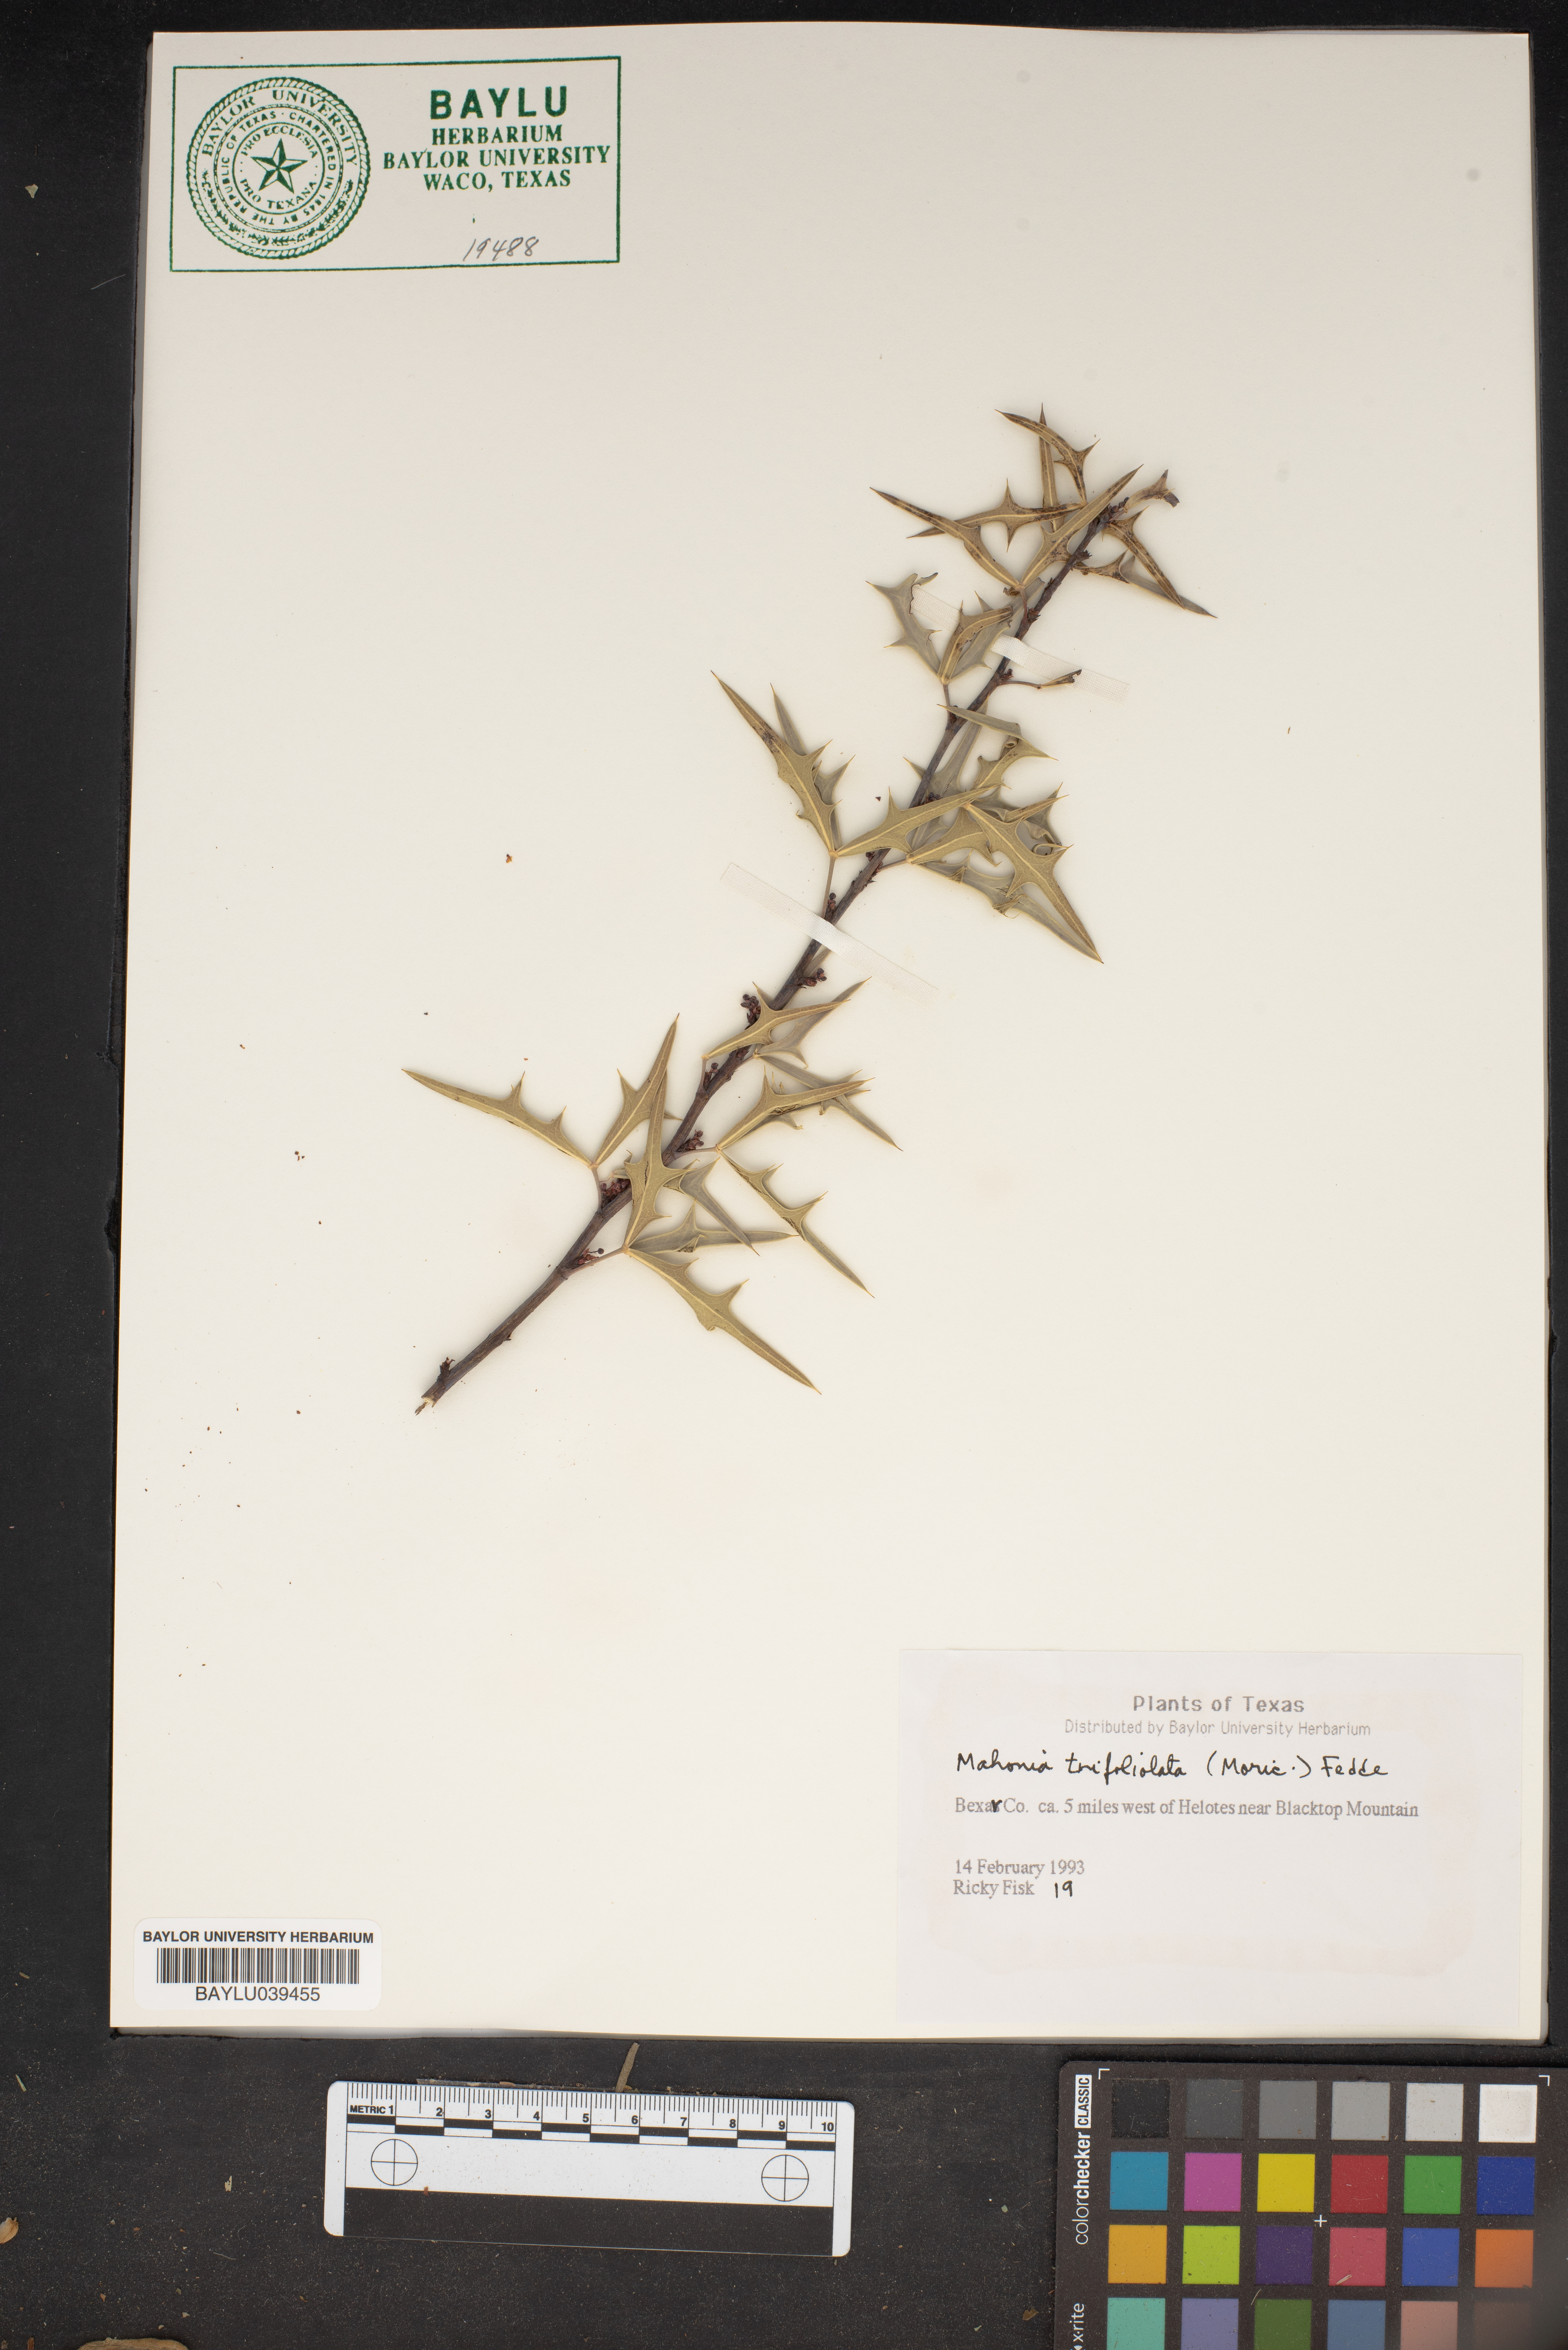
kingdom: Plantae
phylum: Tracheophyta
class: Magnoliopsida
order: Ranunculales
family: Berberidaceae
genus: Mahonia
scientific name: Mahonia trifolia
